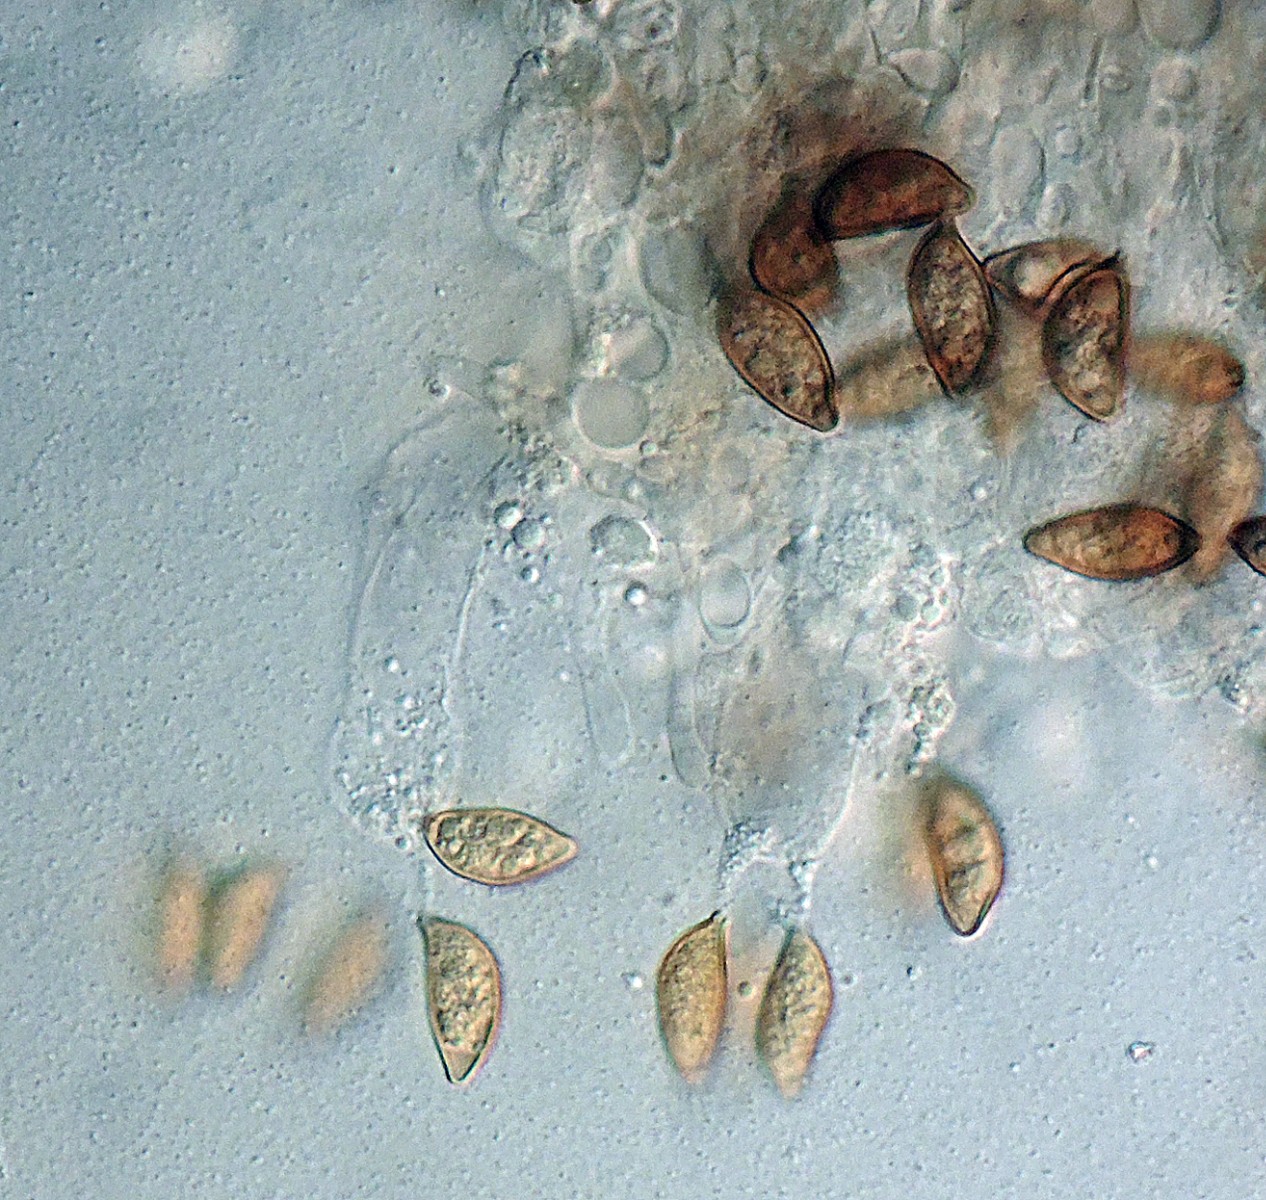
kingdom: Fungi
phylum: Basidiomycota
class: Agaricomycetes
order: Boletales
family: Coniophoraceae
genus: Coniophora
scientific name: Coniophora fusispora
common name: tensporet tømmersvamp
